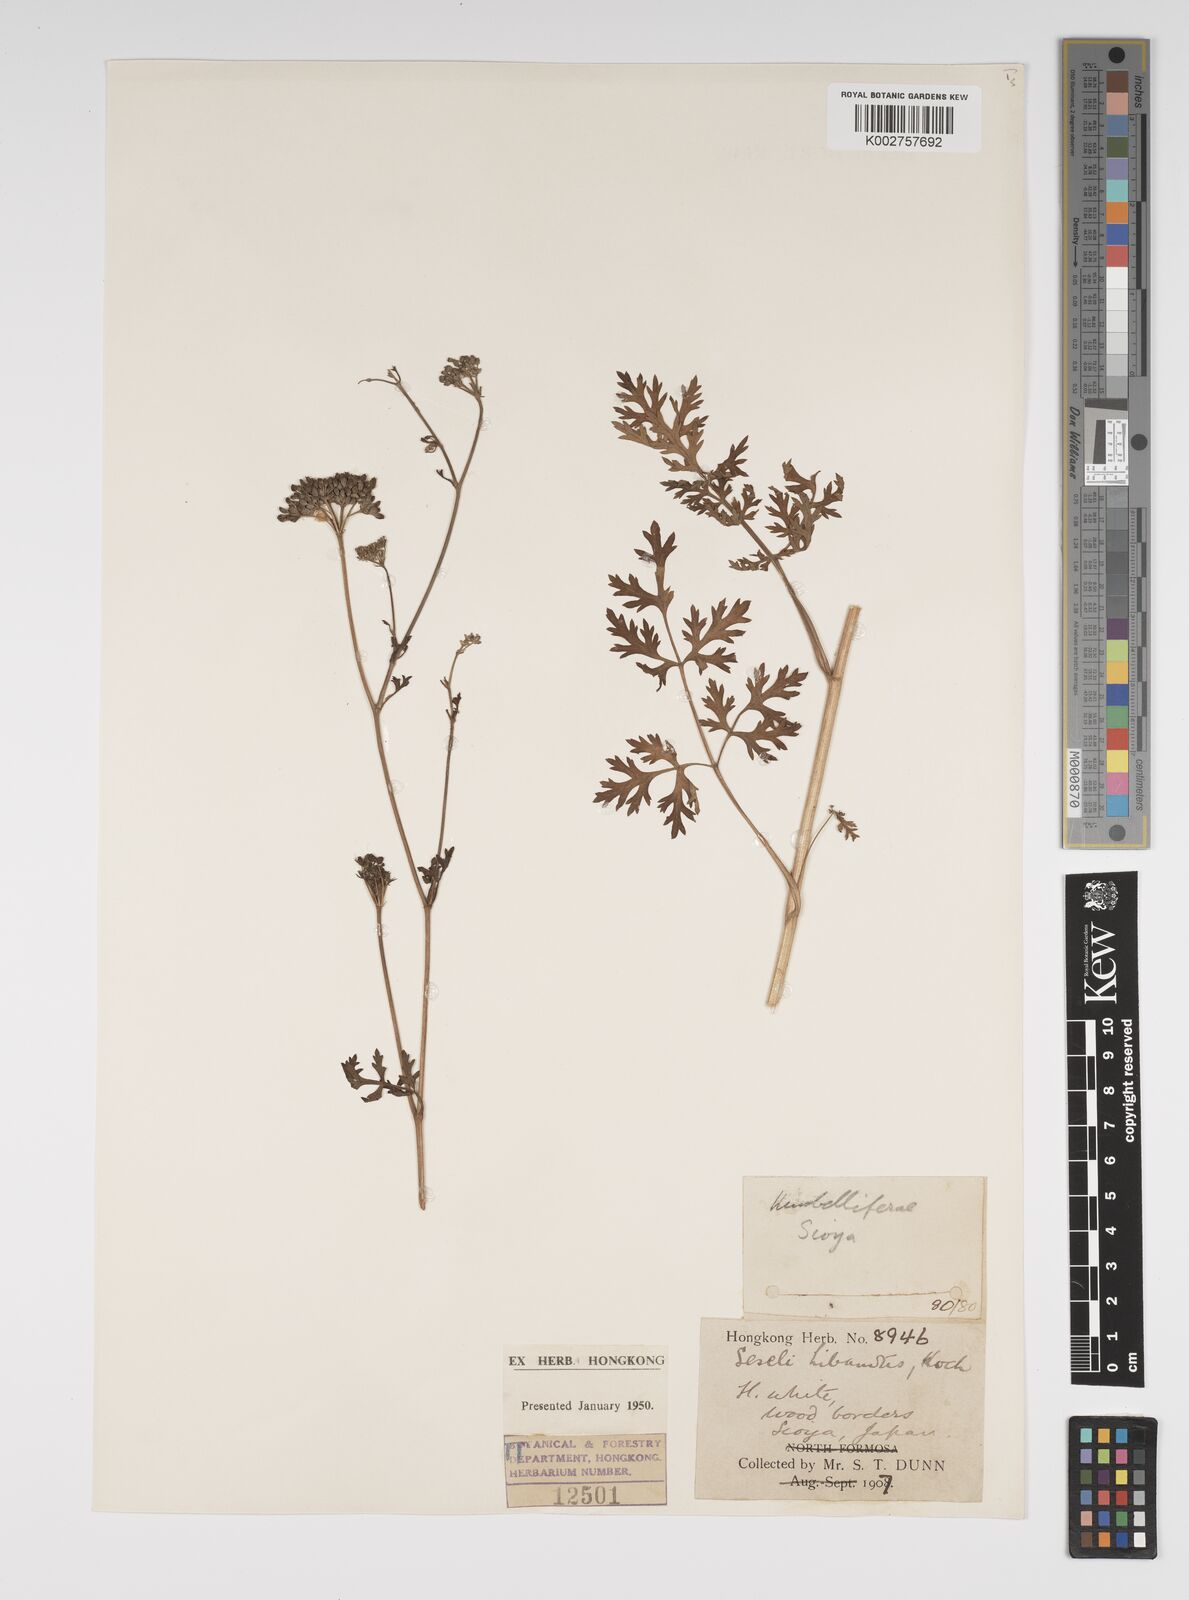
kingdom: Plantae
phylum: Tracheophyta
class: Magnoliopsida
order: Apiales
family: Apiaceae
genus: Seseli
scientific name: Seseli libanotis
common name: Mooncarrot
